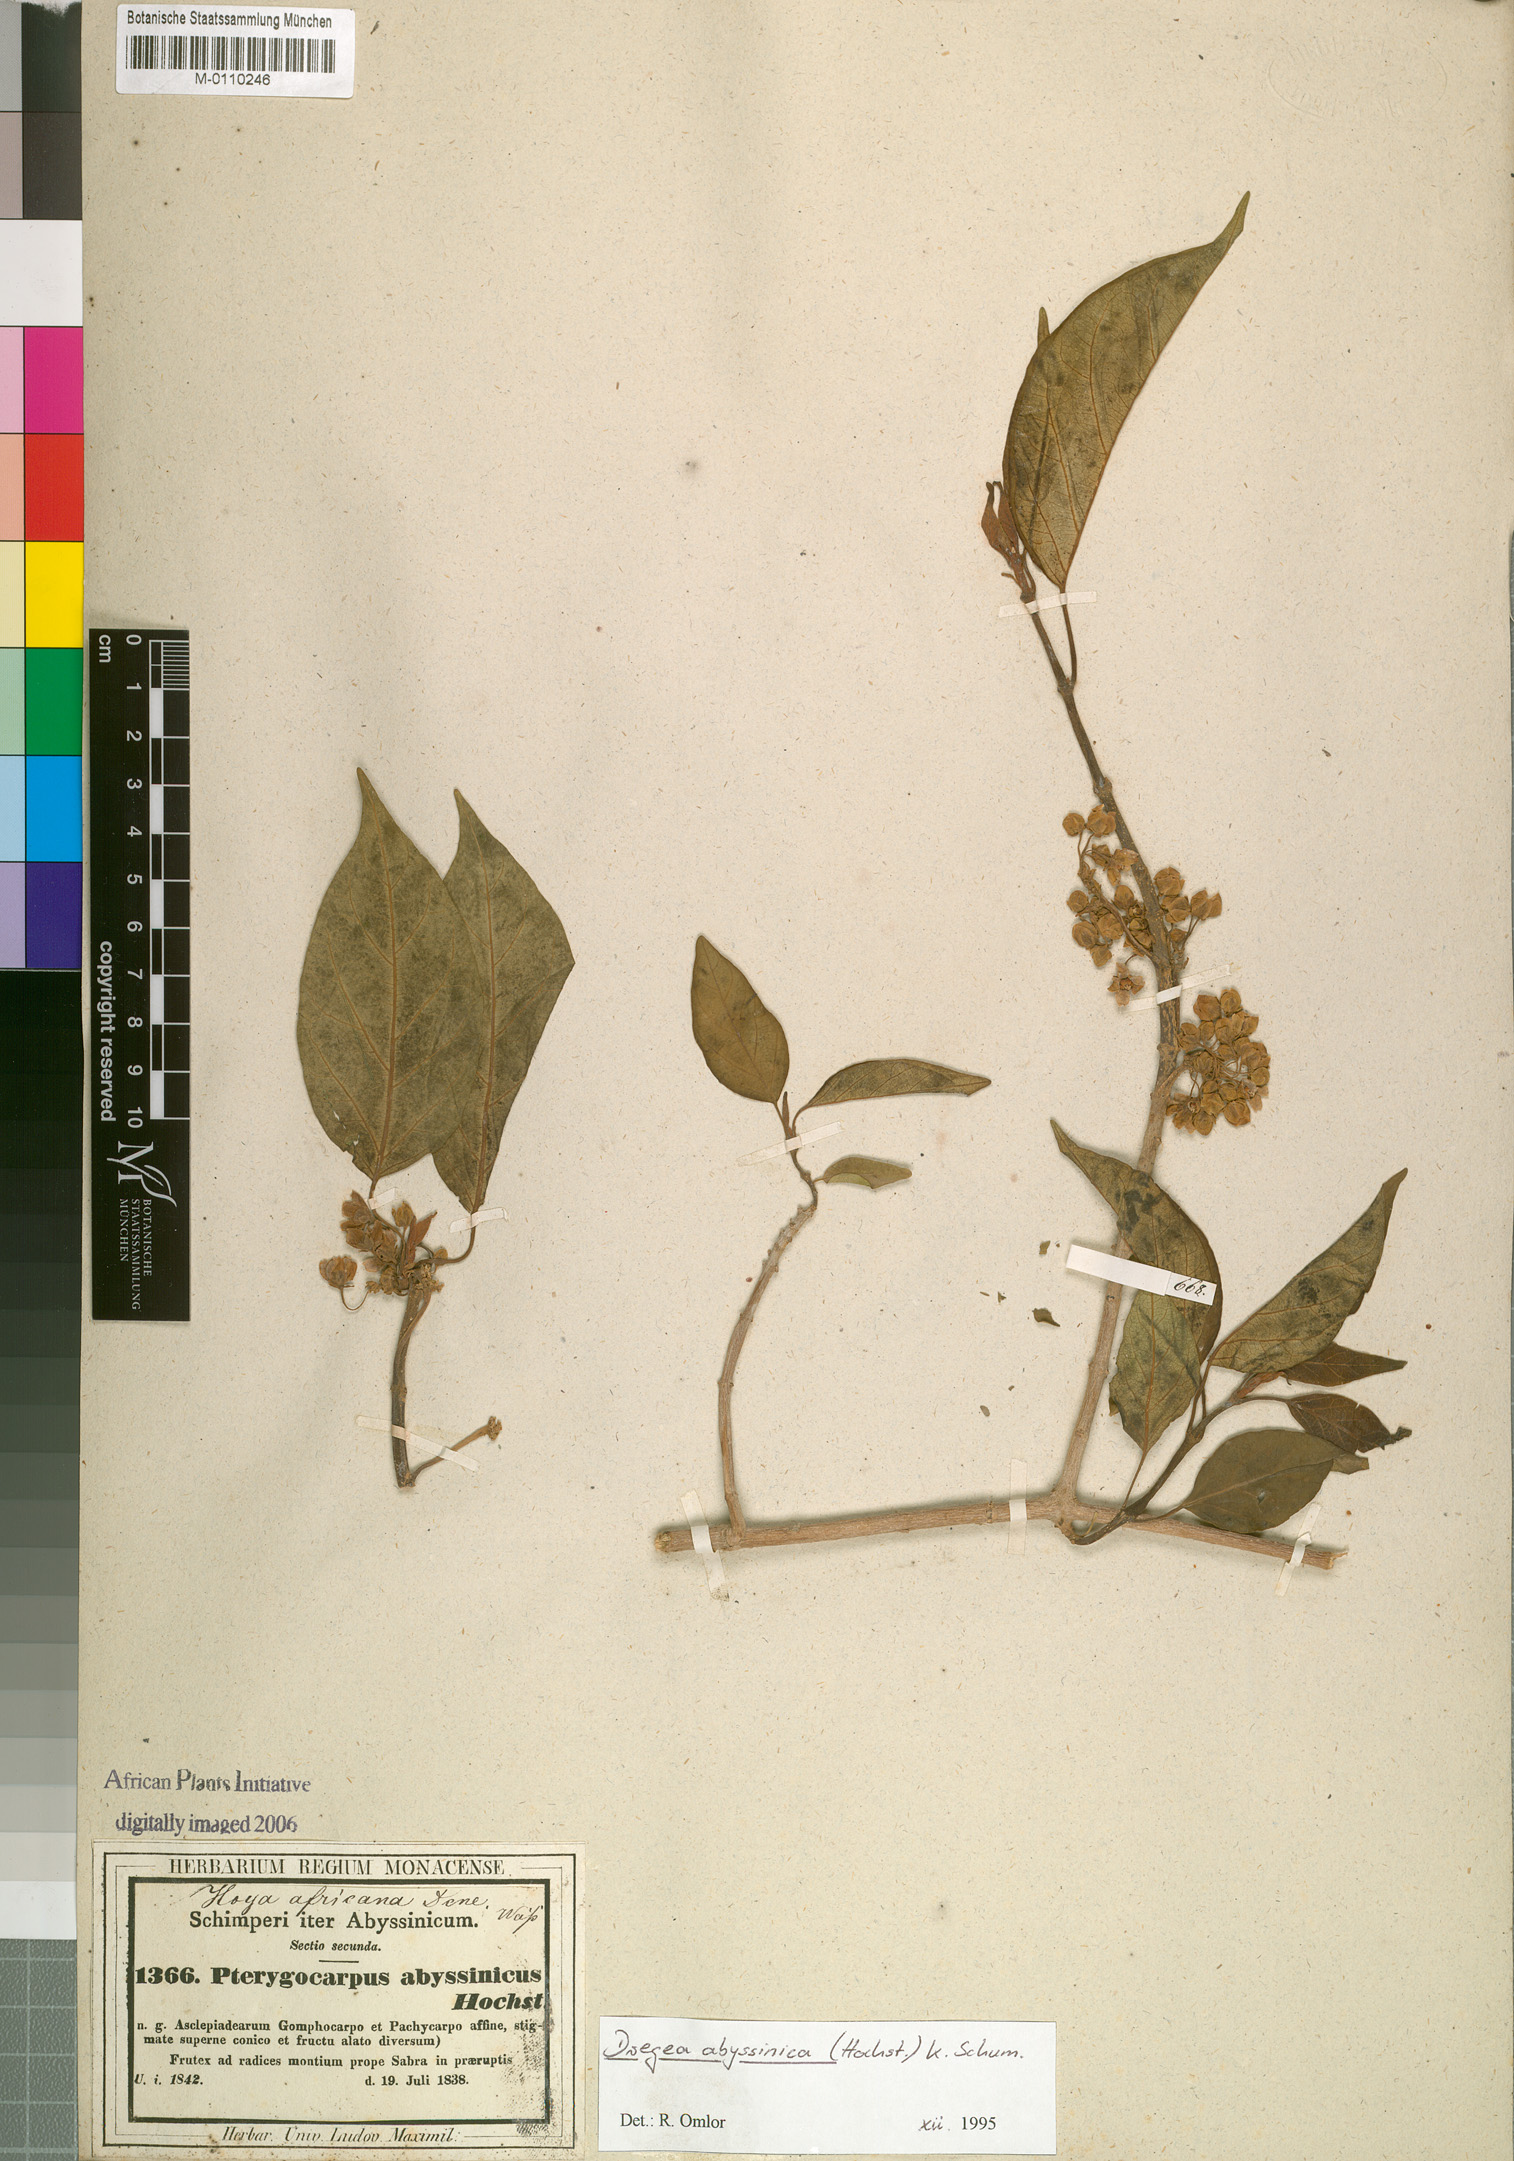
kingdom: Plantae
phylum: Tracheophyta
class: Magnoliopsida
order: Gentianales
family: Apocynaceae
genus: Stephanotis
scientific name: Stephanotis abyssinica
